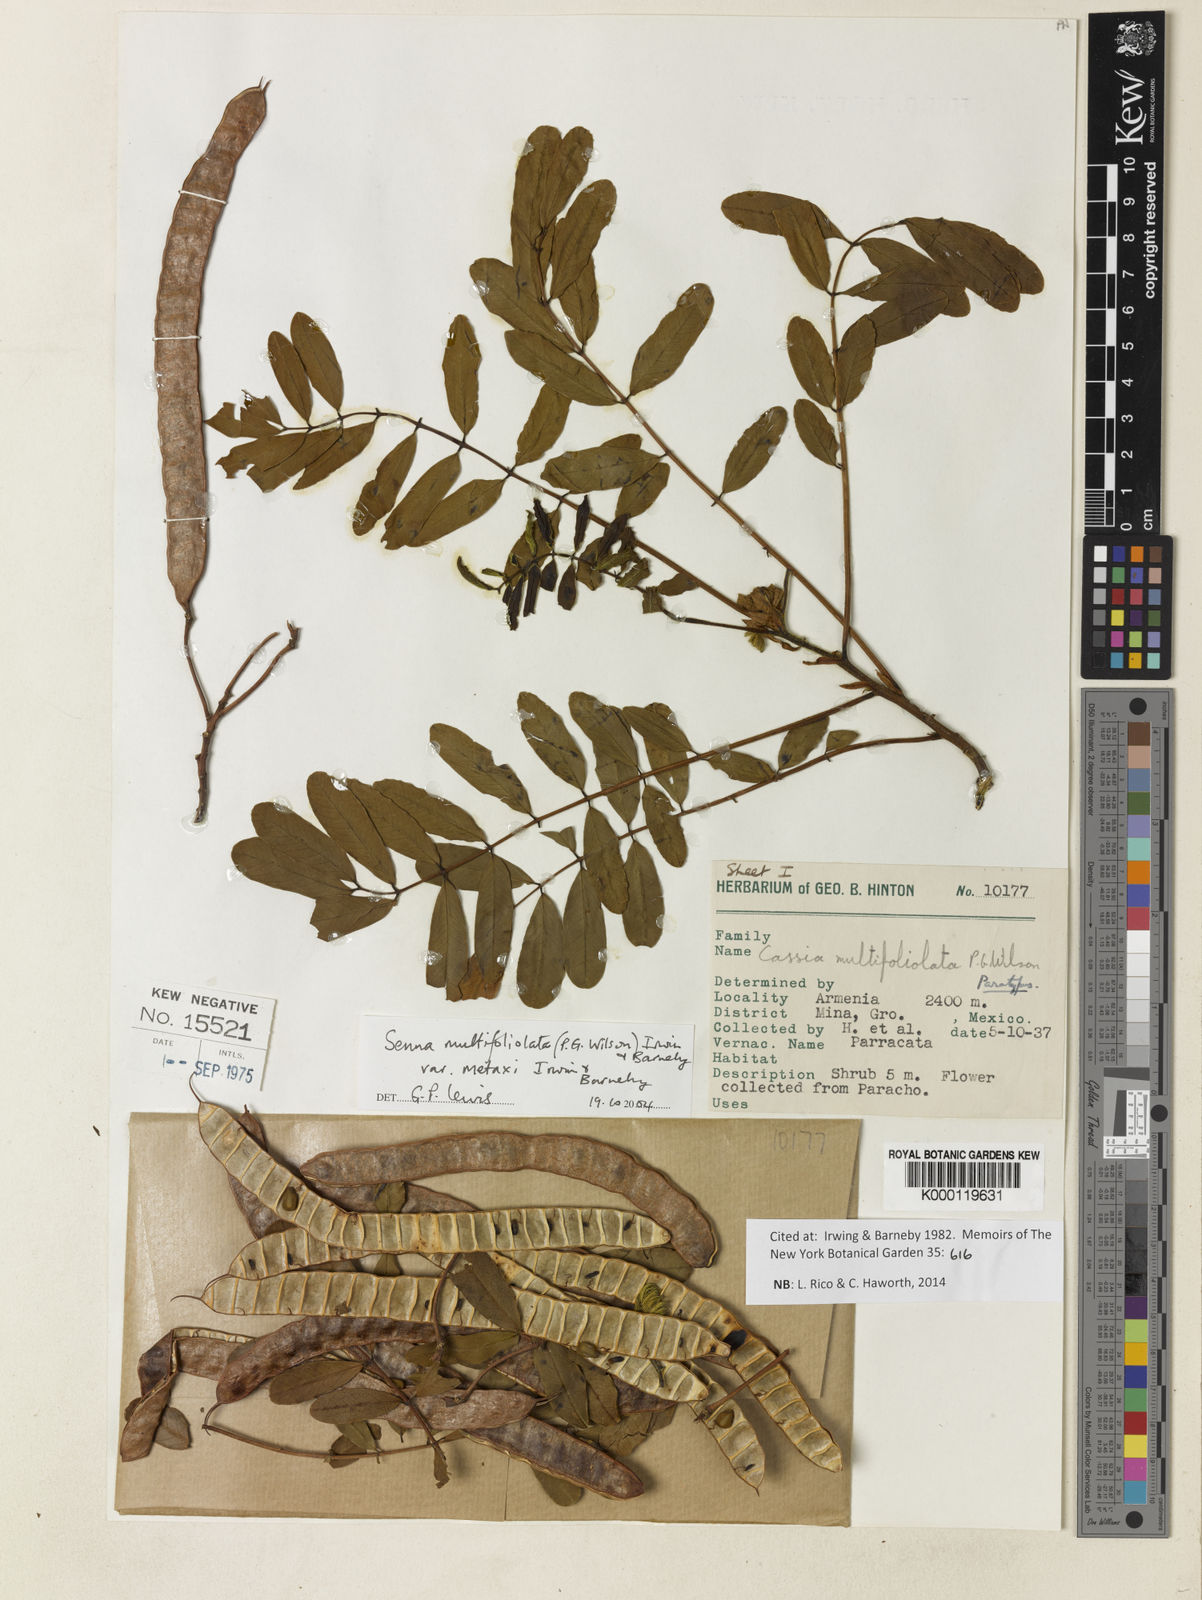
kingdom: Plantae
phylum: Tracheophyta
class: Magnoliopsida
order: Fabales
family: Fabaceae
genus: Senna
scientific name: Senna multifoliolata
